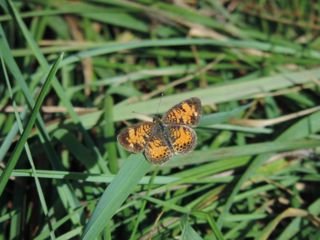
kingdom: Animalia
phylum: Arthropoda
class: Insecta
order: Lepidoptera
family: Nymphalidae
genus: Phyciodes
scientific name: Phyciodes tharos
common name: Northern Crescent
